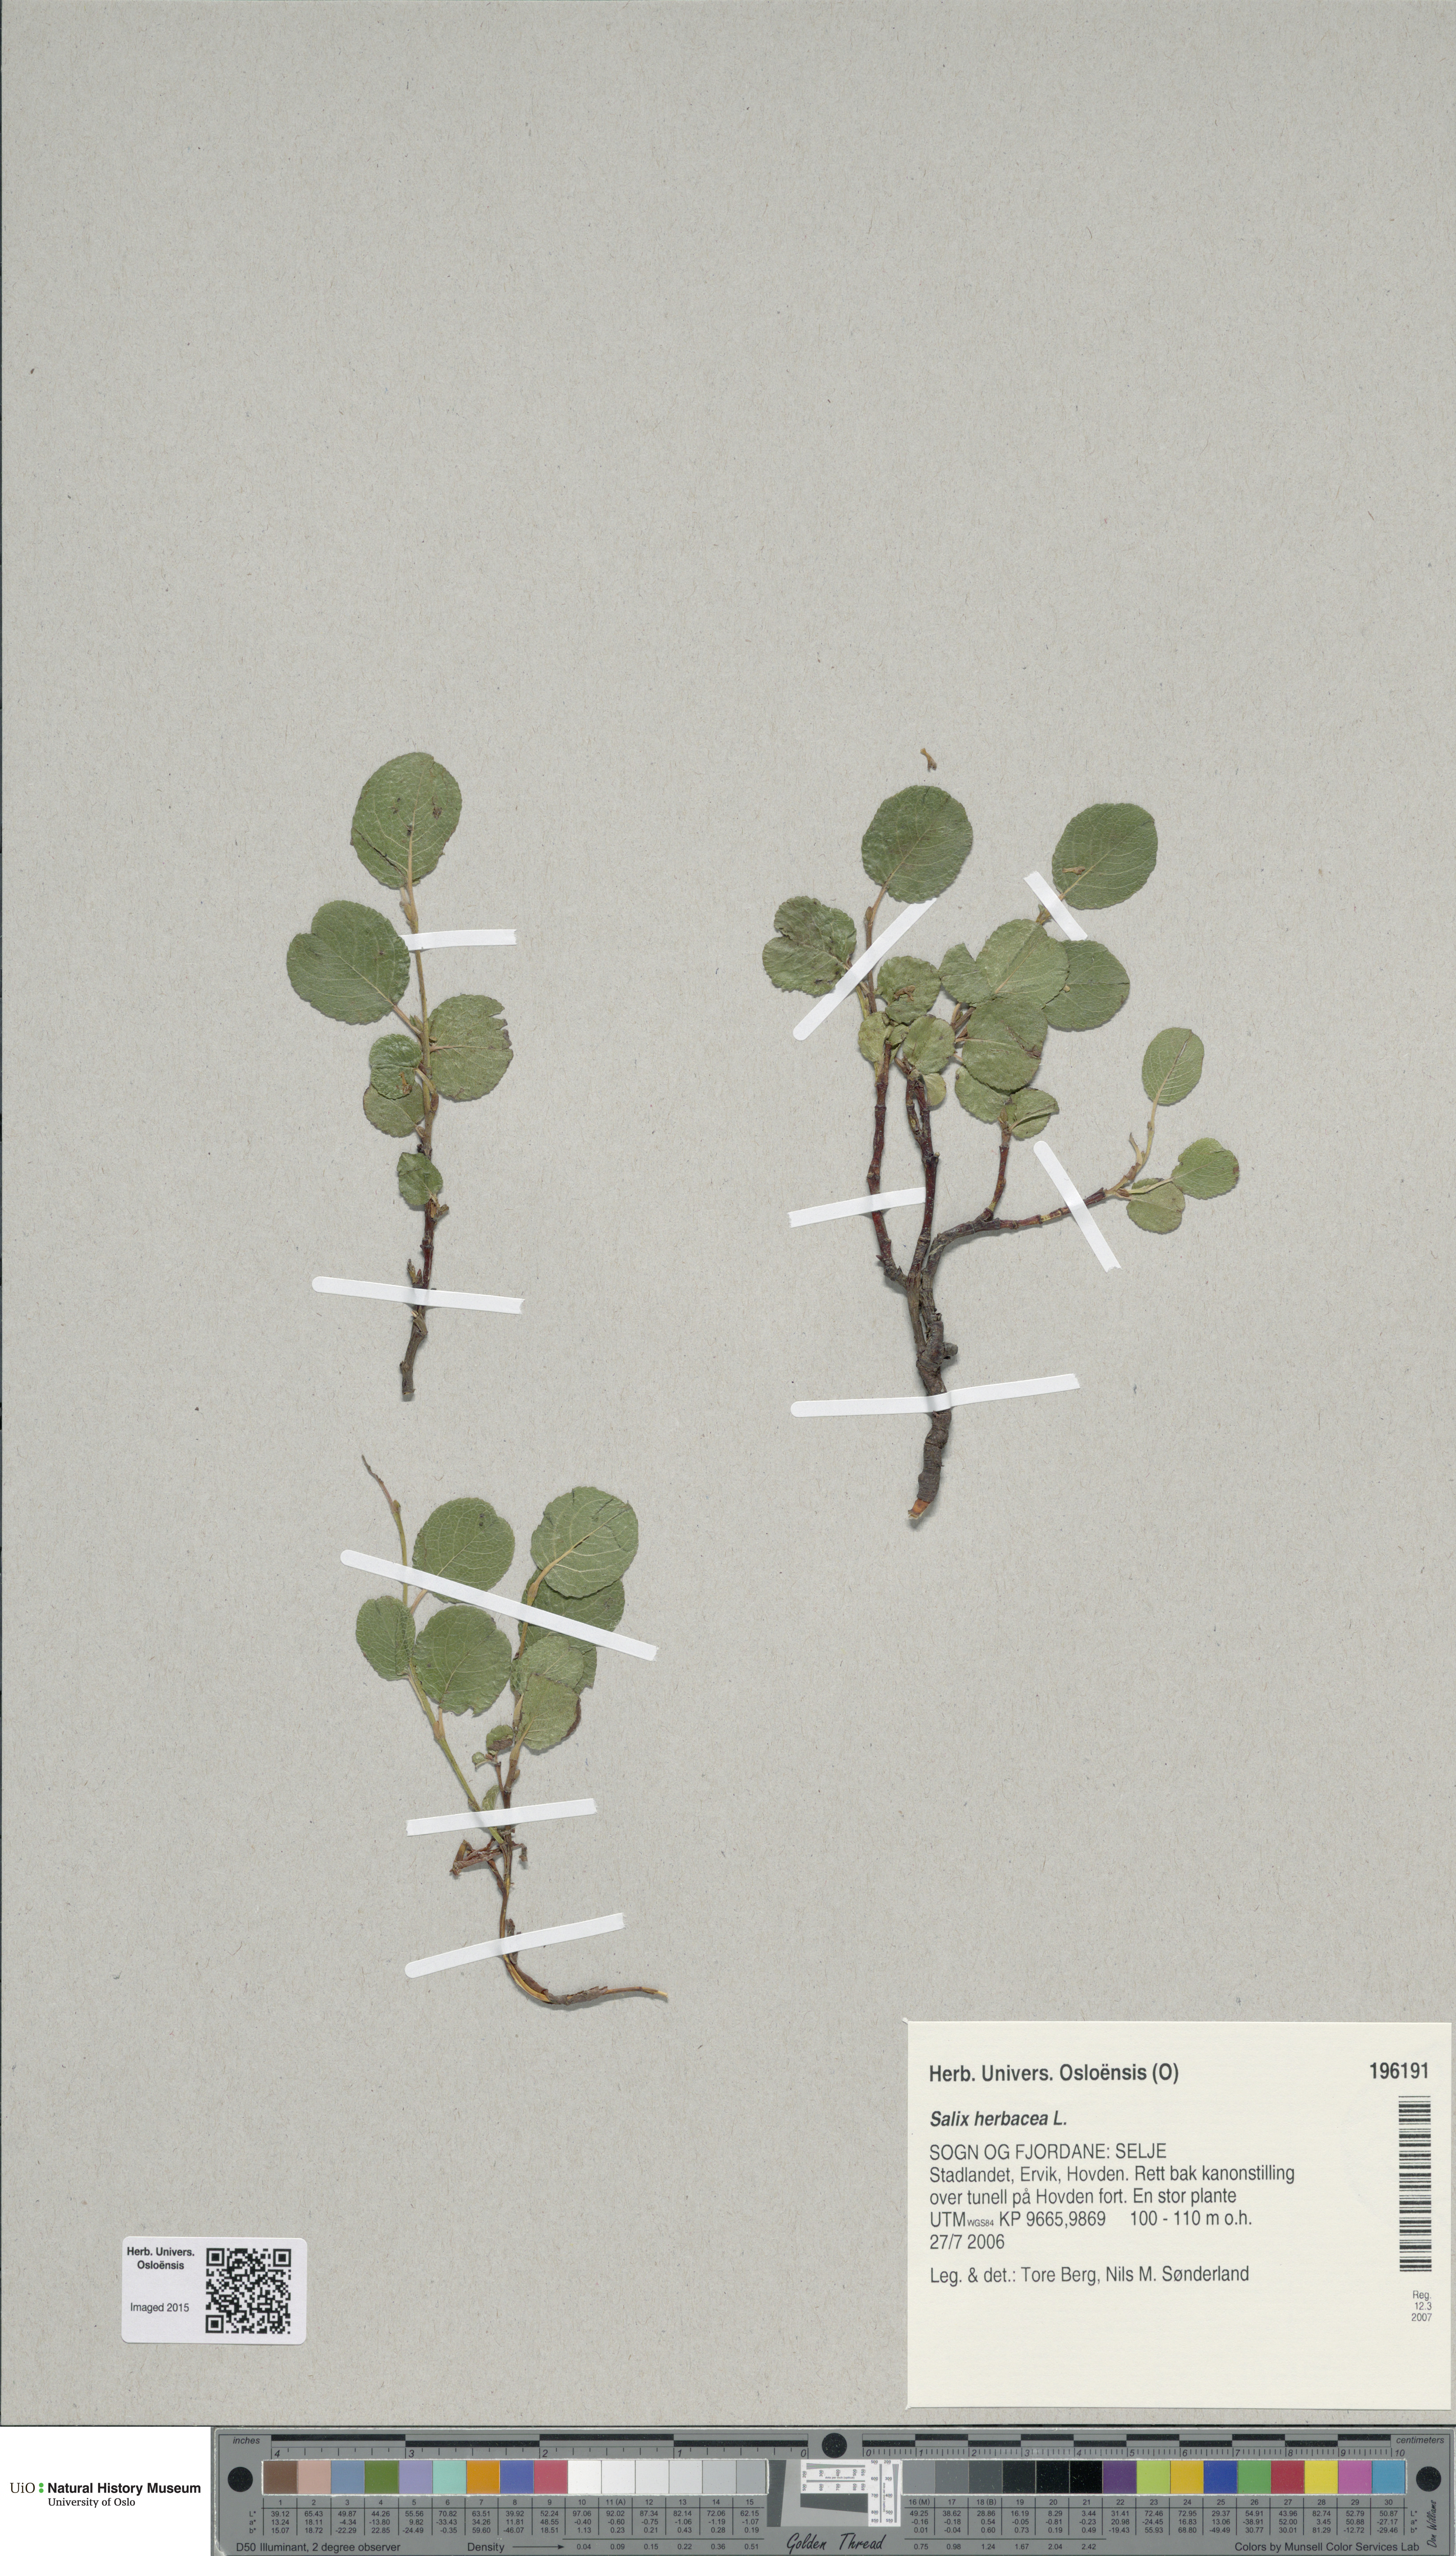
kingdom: Plantae
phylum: Tracheophyta
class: Magnoliopsida
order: Malpighiales
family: Salicaceae
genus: Salix
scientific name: Salix herbacea
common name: Dwarf willow
